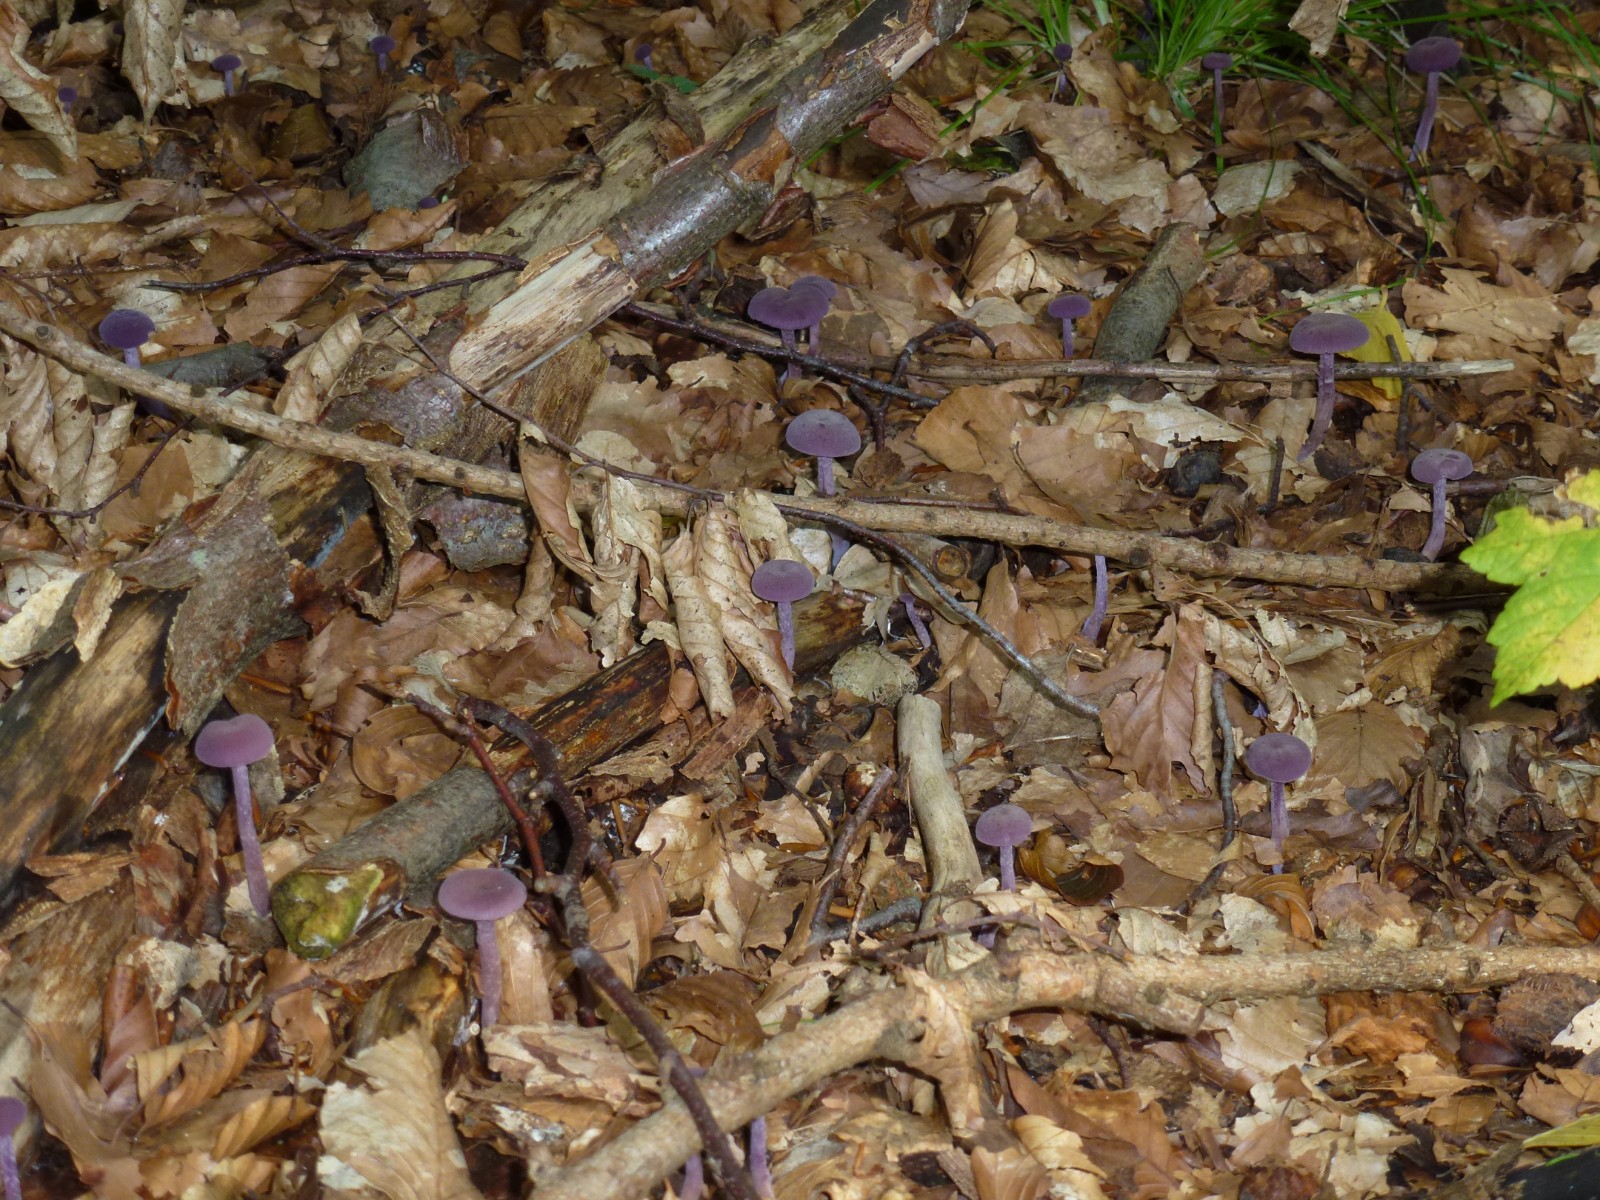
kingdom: Fungi
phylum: Basidiomycota
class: Agaricomycetes
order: Agaricales
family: Hydnangiaceae
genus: Laccaria
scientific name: Laccaria amethystina
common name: violet ametysthat
